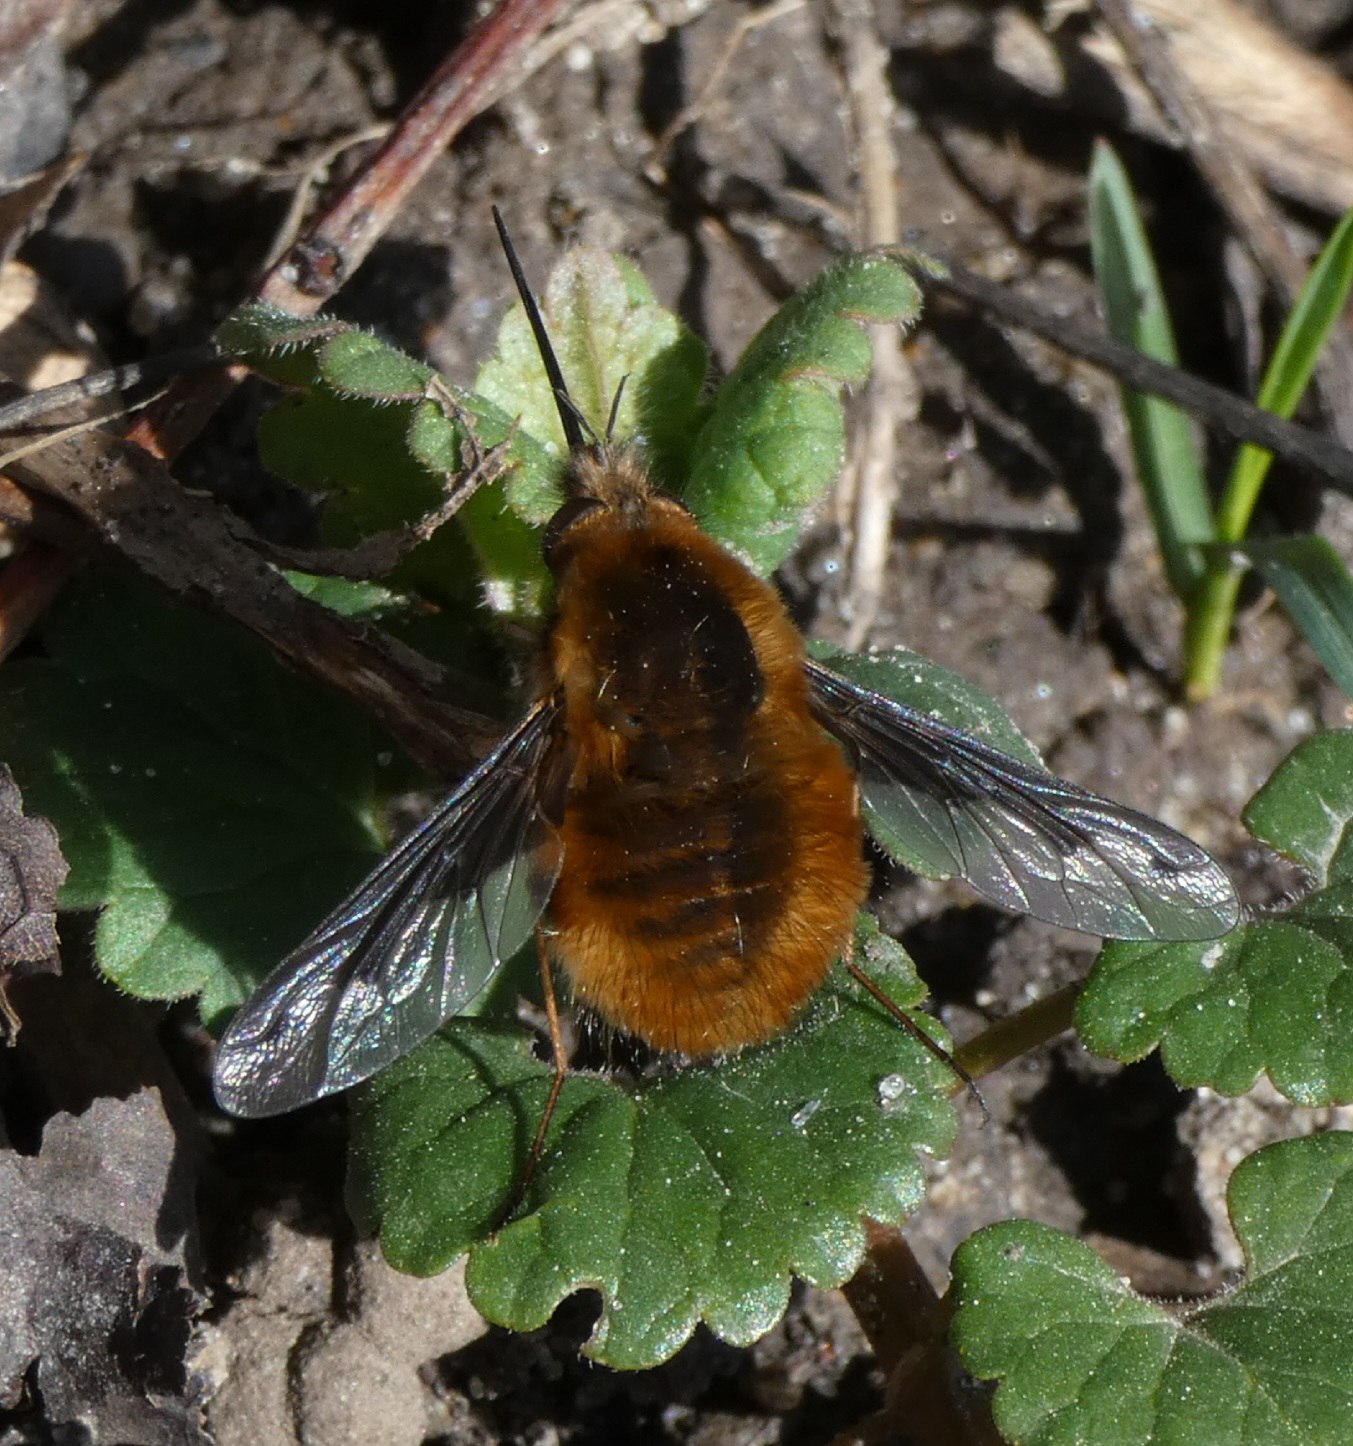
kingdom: Animalia
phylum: Arthropoda
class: Insecta
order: Diptera
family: Bombyliidae
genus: Bombylius
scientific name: Bombylius major
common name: Stor humleflue
